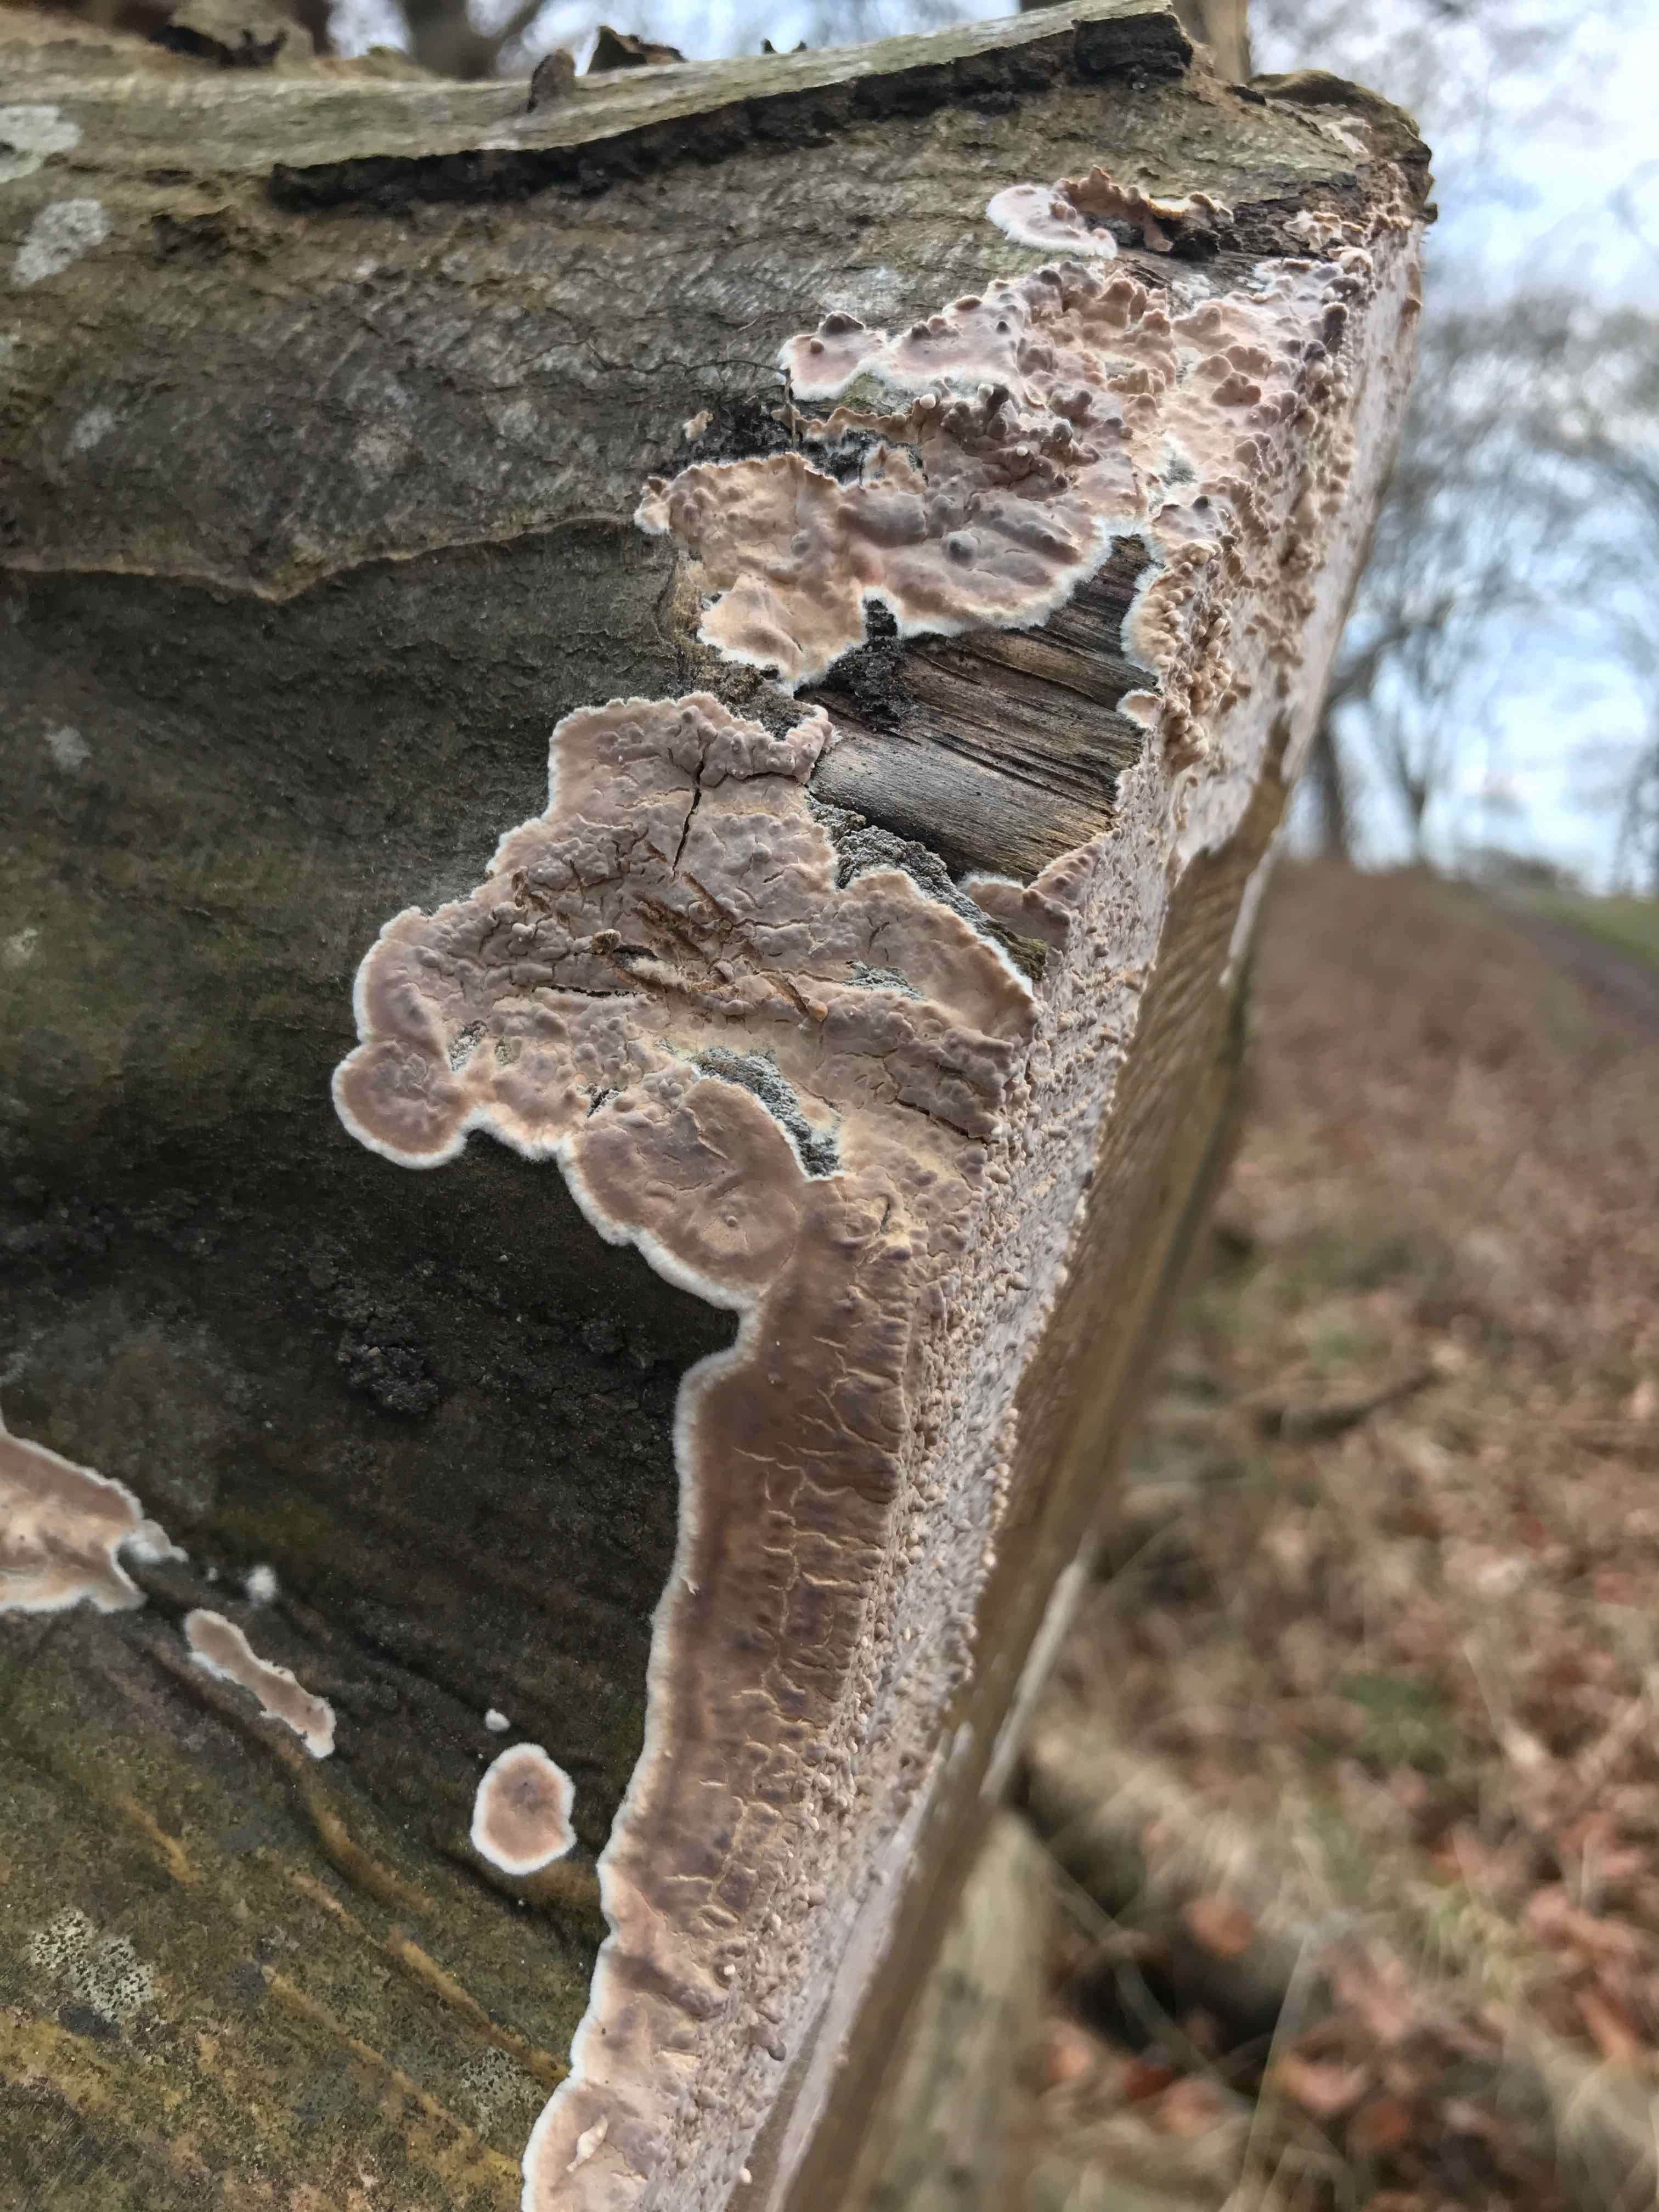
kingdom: Fungi
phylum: Basidiomycota
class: Agaricomycetes
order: Agaricales
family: Physalacriaceae
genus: Cylindrobasidium
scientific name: Cylindrobasidium evolvens
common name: sprækkehinde
